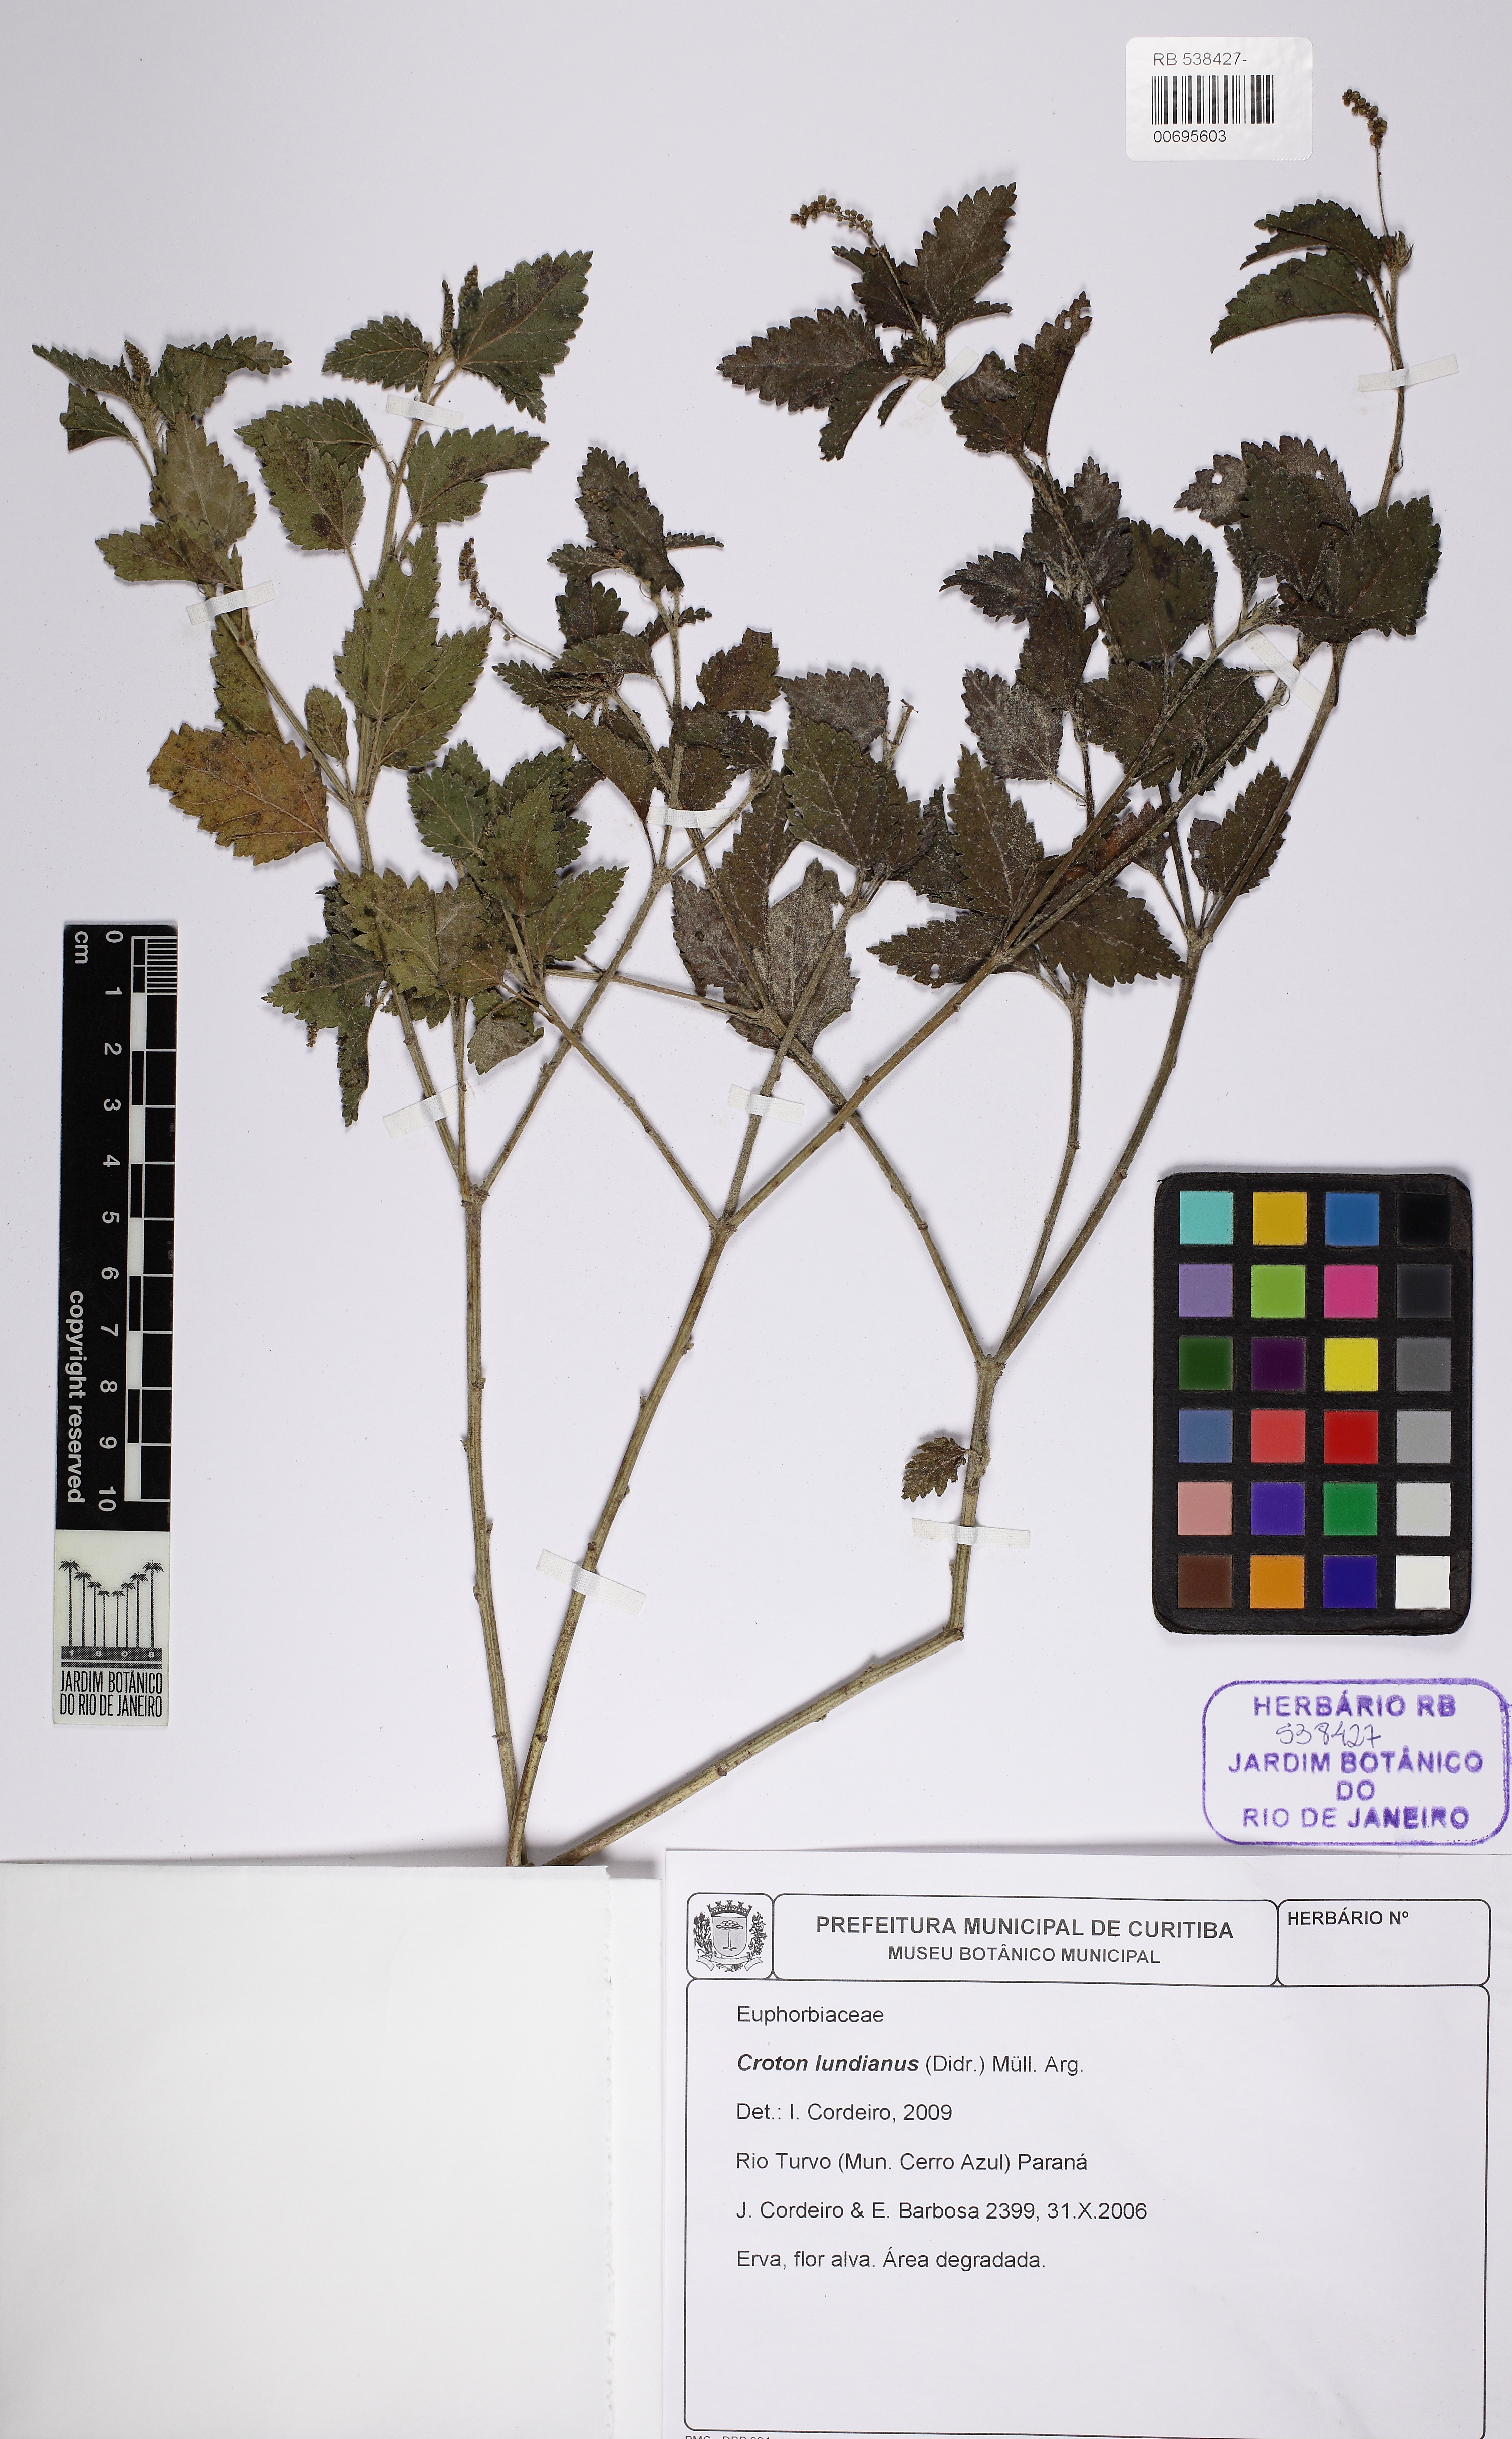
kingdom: Plantae
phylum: Tracheophyta
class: Magnoliopsida
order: Malpighiales
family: Euphorbiaceae
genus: Croton
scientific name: Croton lundianus
